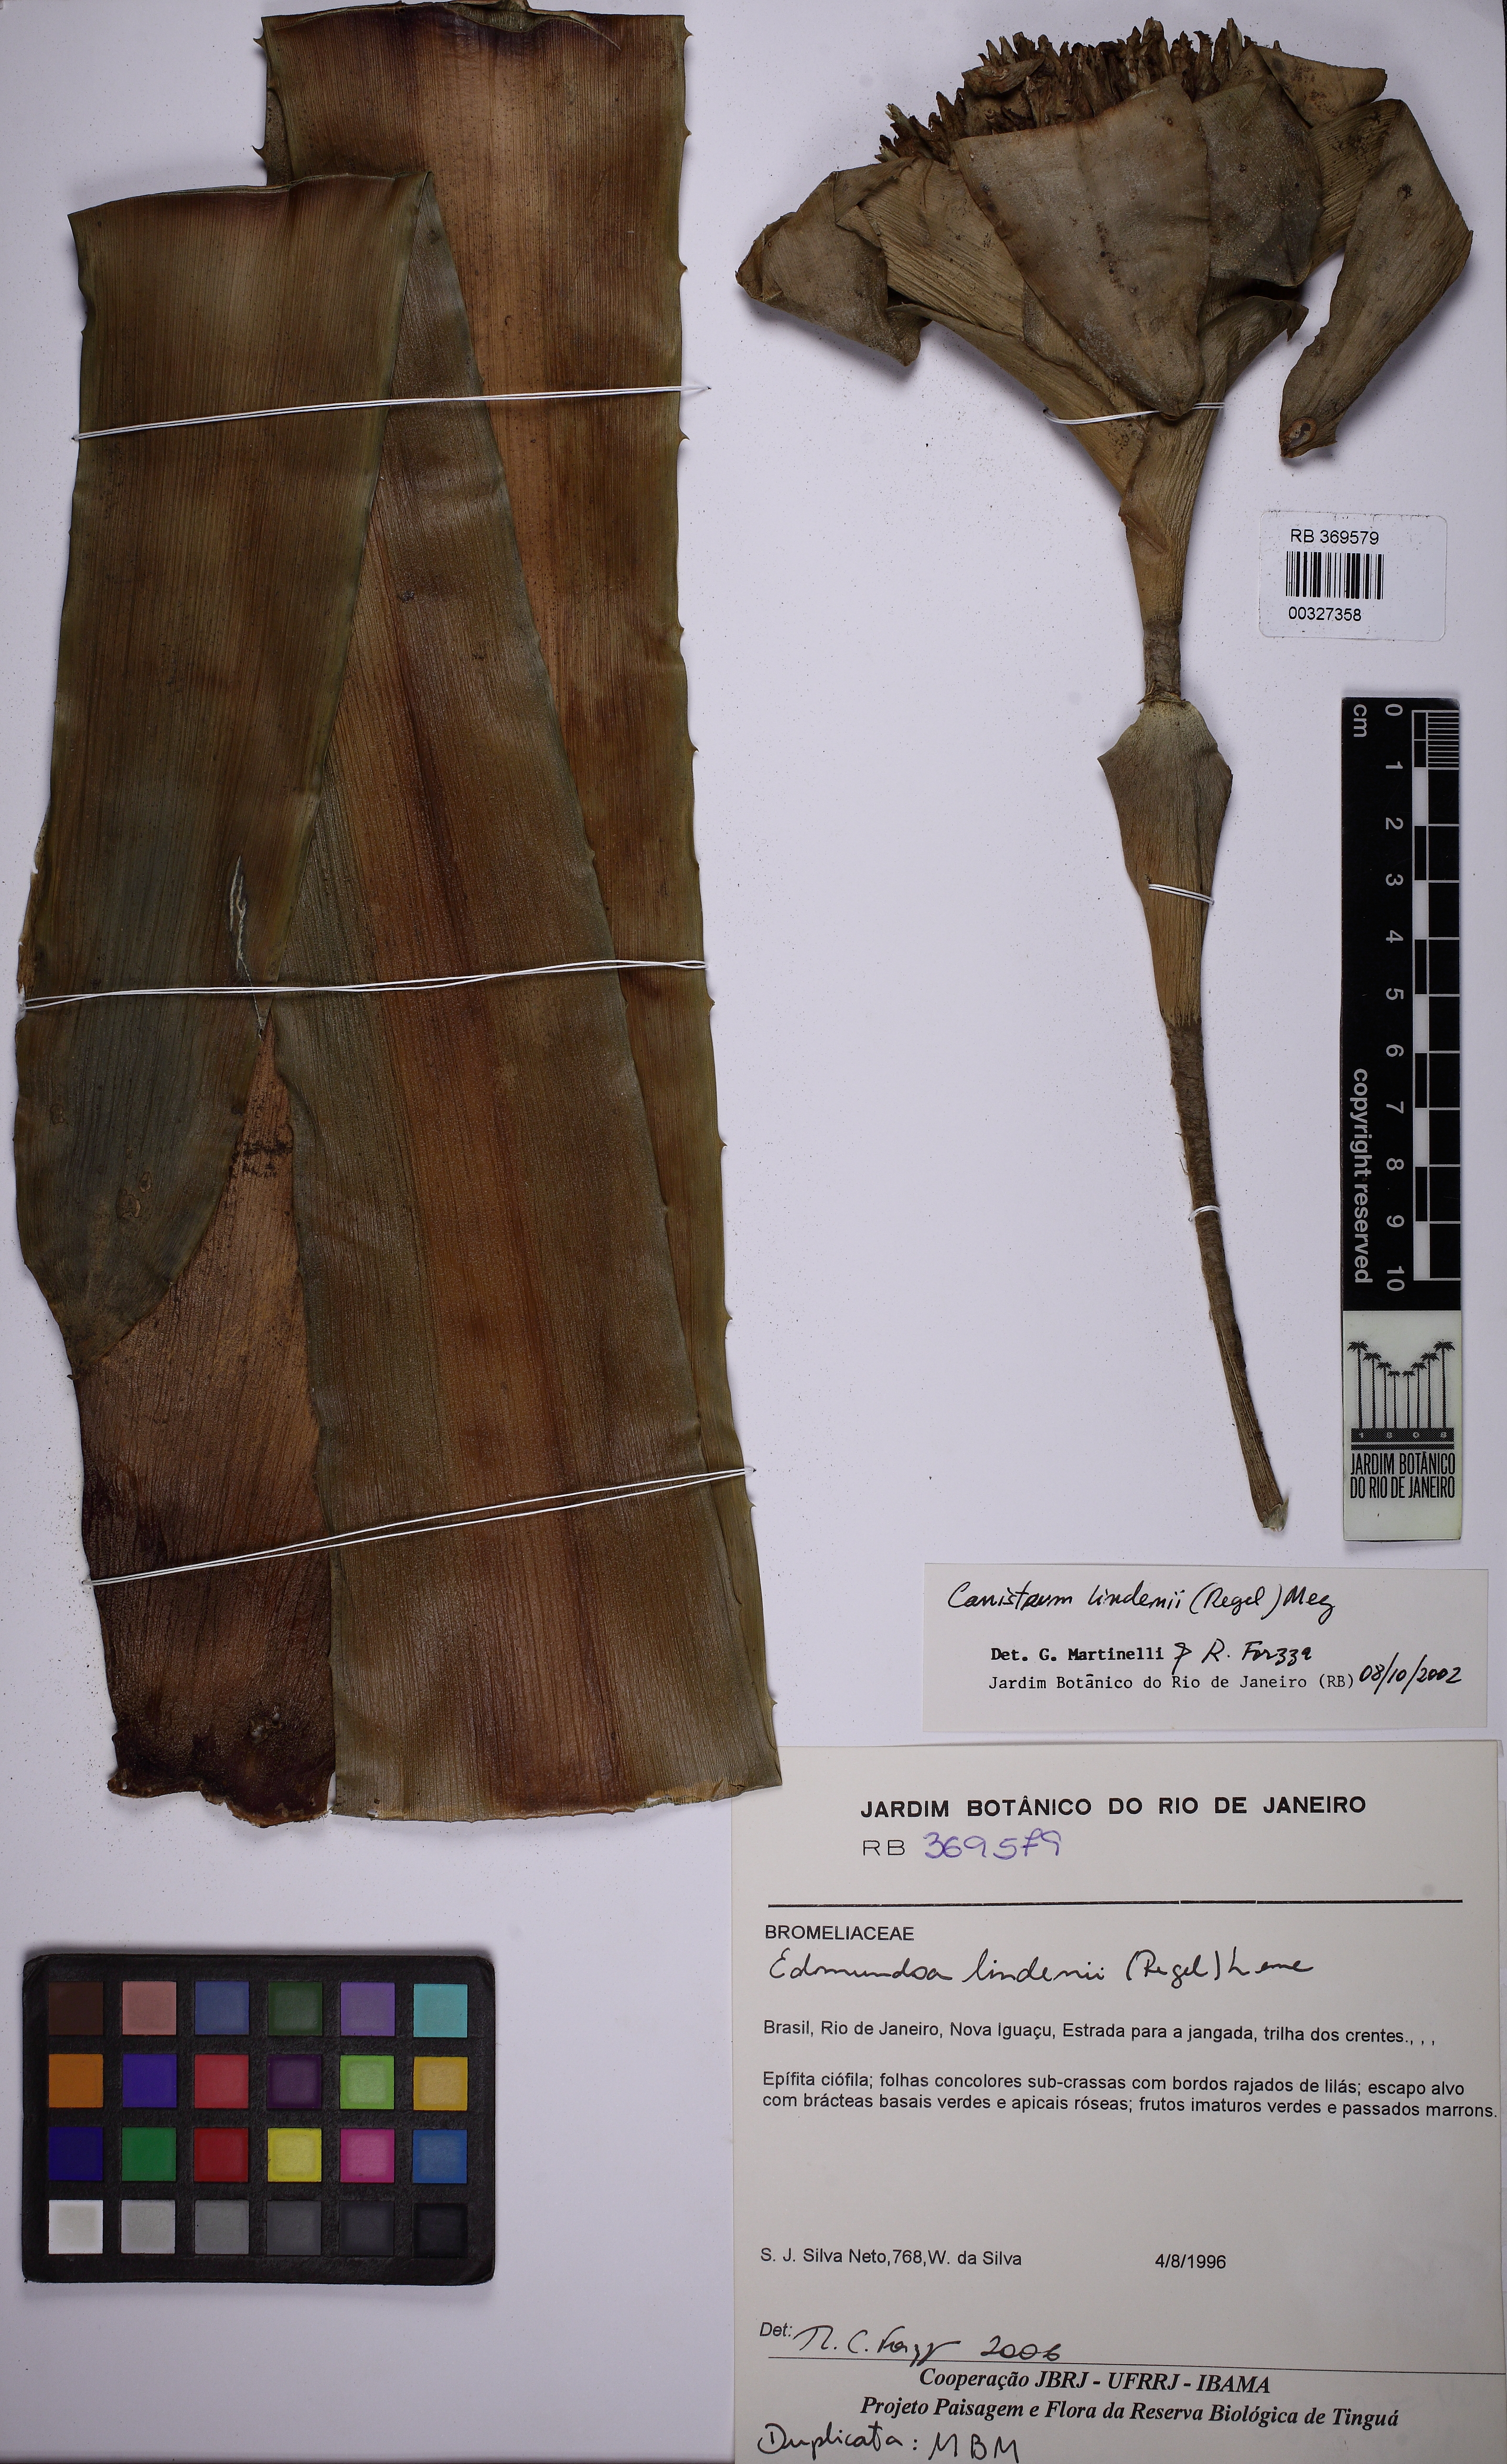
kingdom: Plantae
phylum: Tracheophyta
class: Liliopsida
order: Poales
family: Bromeliaceae
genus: Edmundoa
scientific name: Edmundoa lindenii
